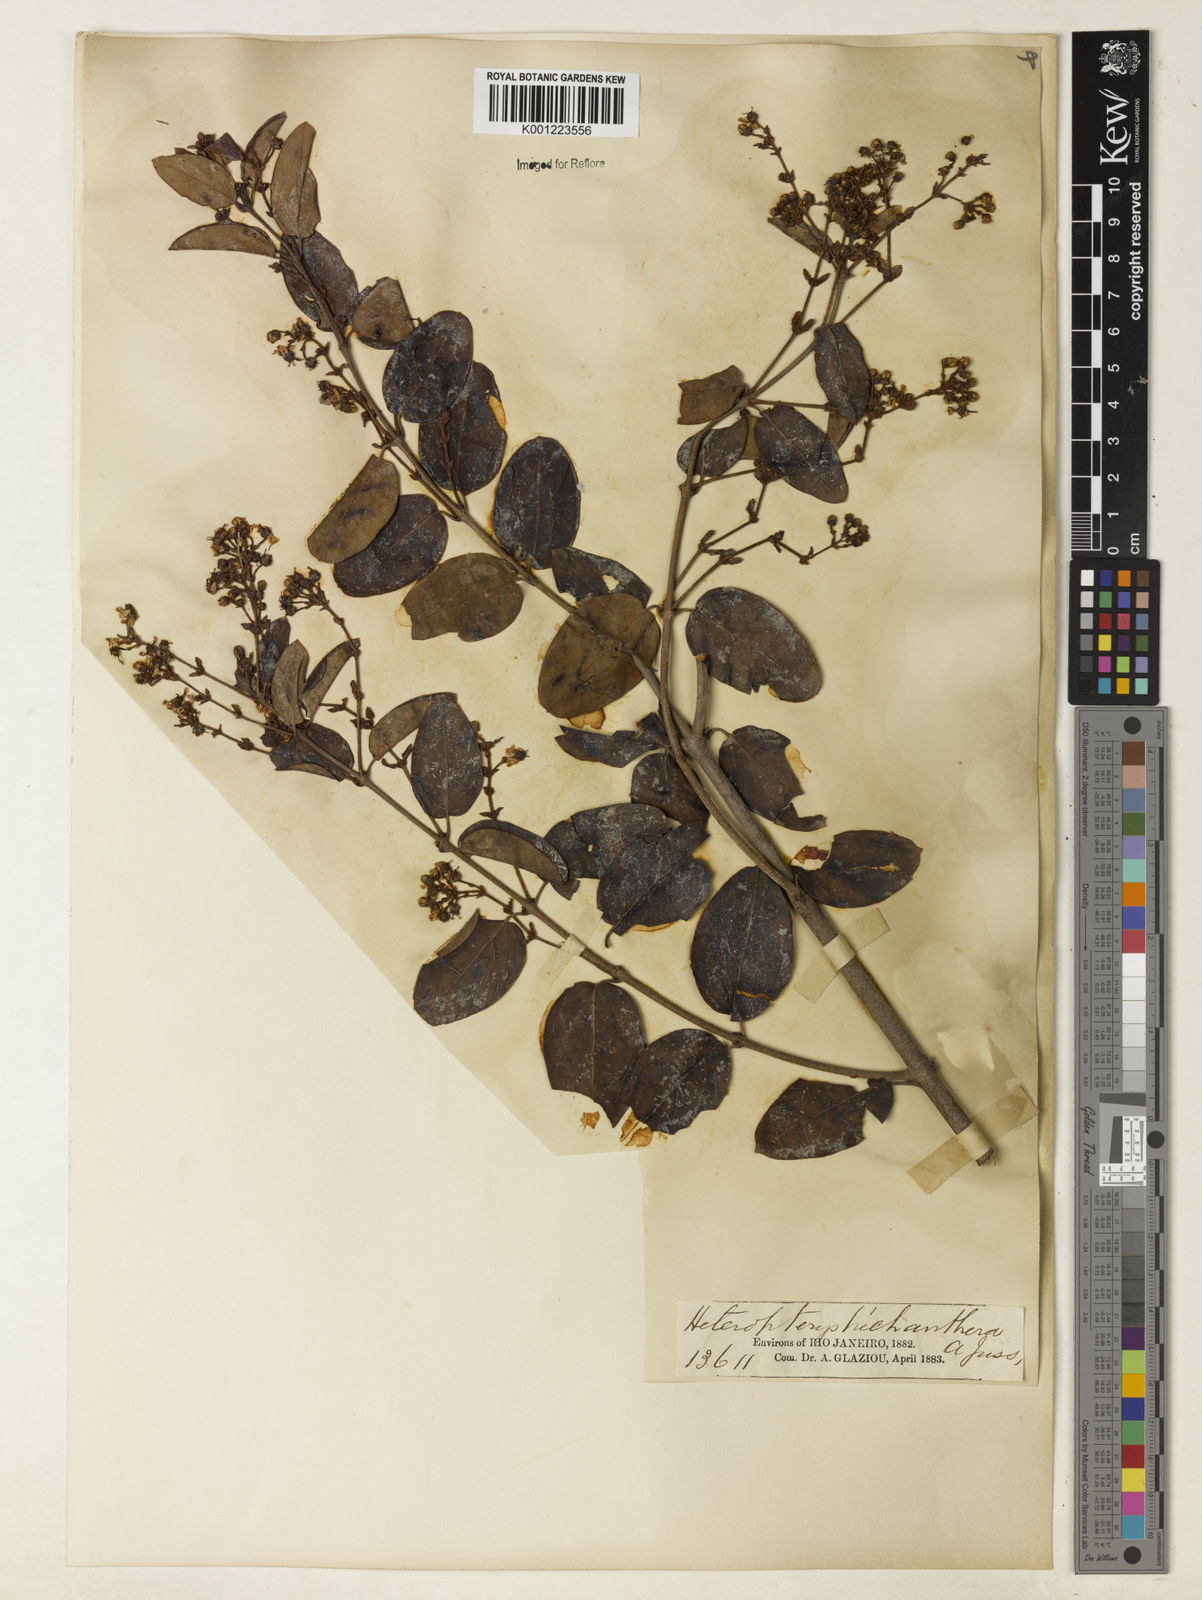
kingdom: Plantae
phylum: Tracheophyta
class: Magnoliopsida
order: Malpighiales
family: Malpighiaceae
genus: Heteropterys
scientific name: Heteropterys trichanthera
